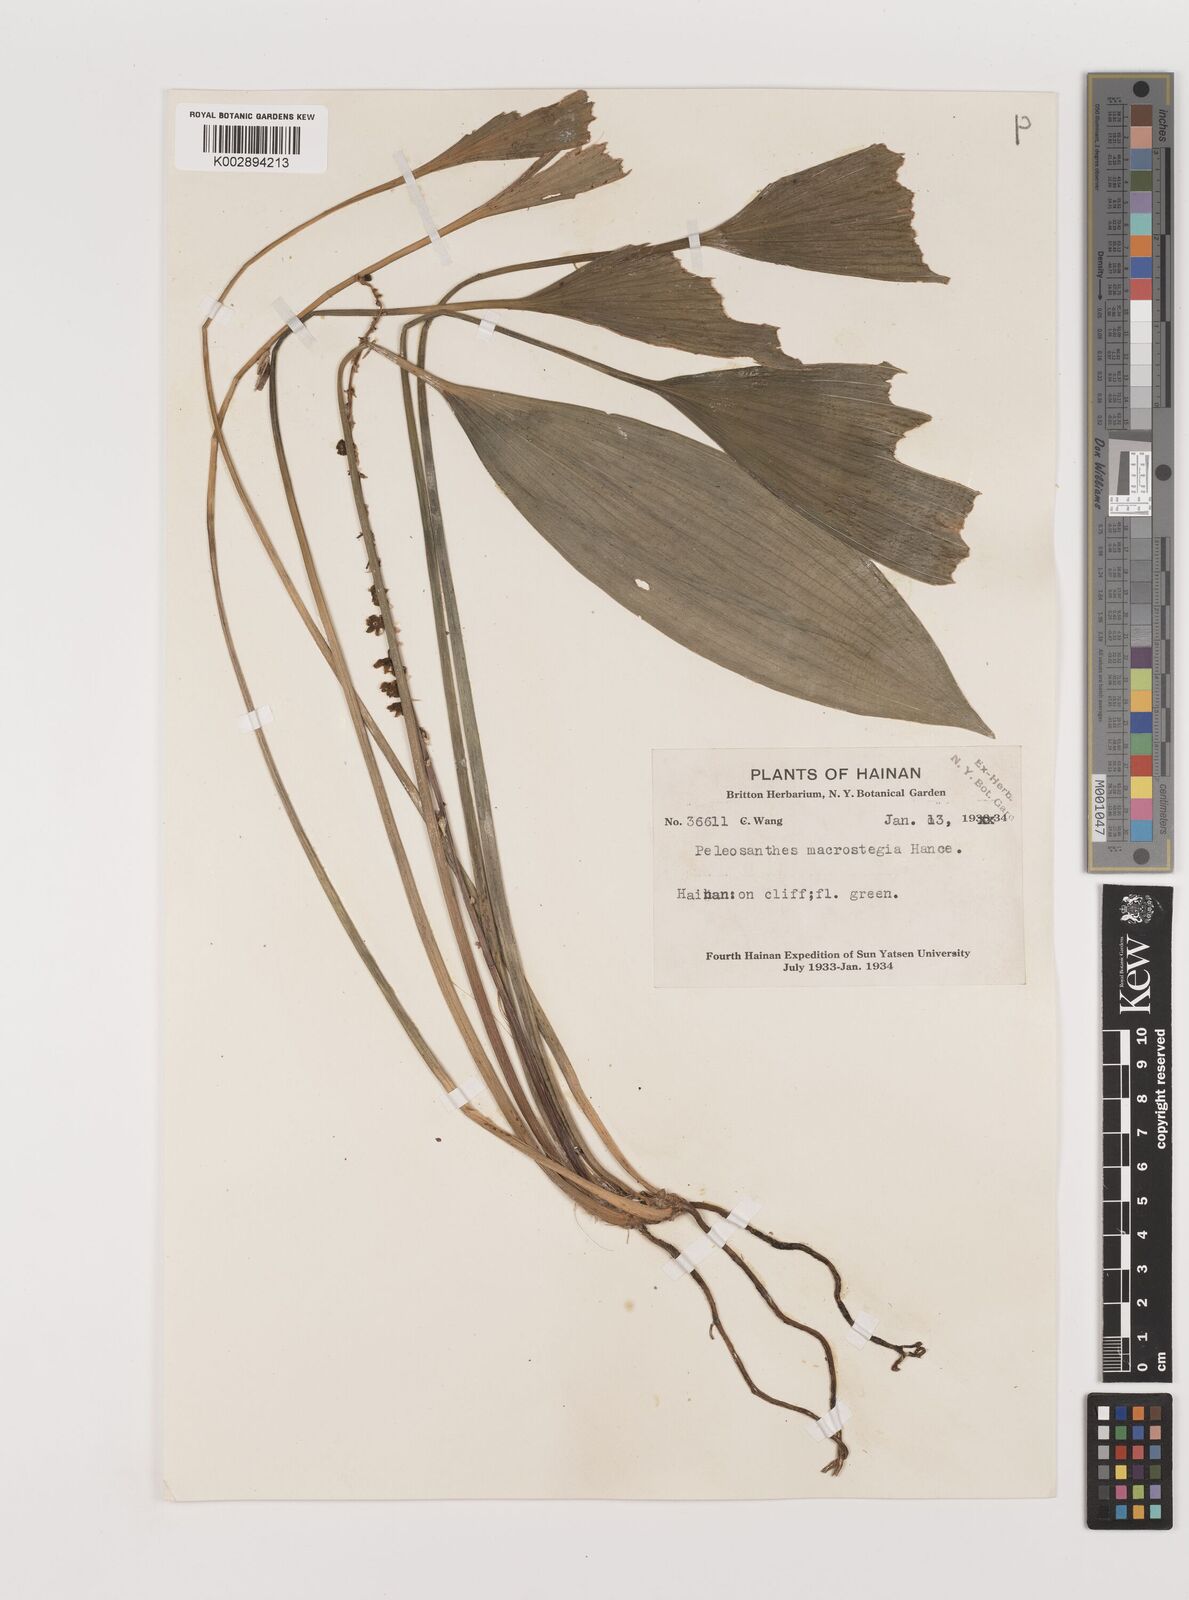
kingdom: Plantae
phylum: Tracheophyta
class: Liliopsida
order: Asparagales
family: Asparagaceae
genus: Peliosanthes
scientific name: Peliosanthes teta
